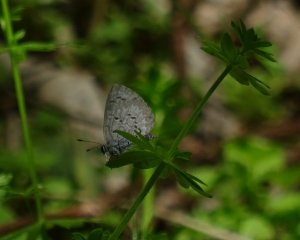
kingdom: Animalia
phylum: Arthropoda
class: Insecta
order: Lepidoptera
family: Lycaenidae
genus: Celastrina
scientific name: Celastrina lucia
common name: Northern Spring Azure
